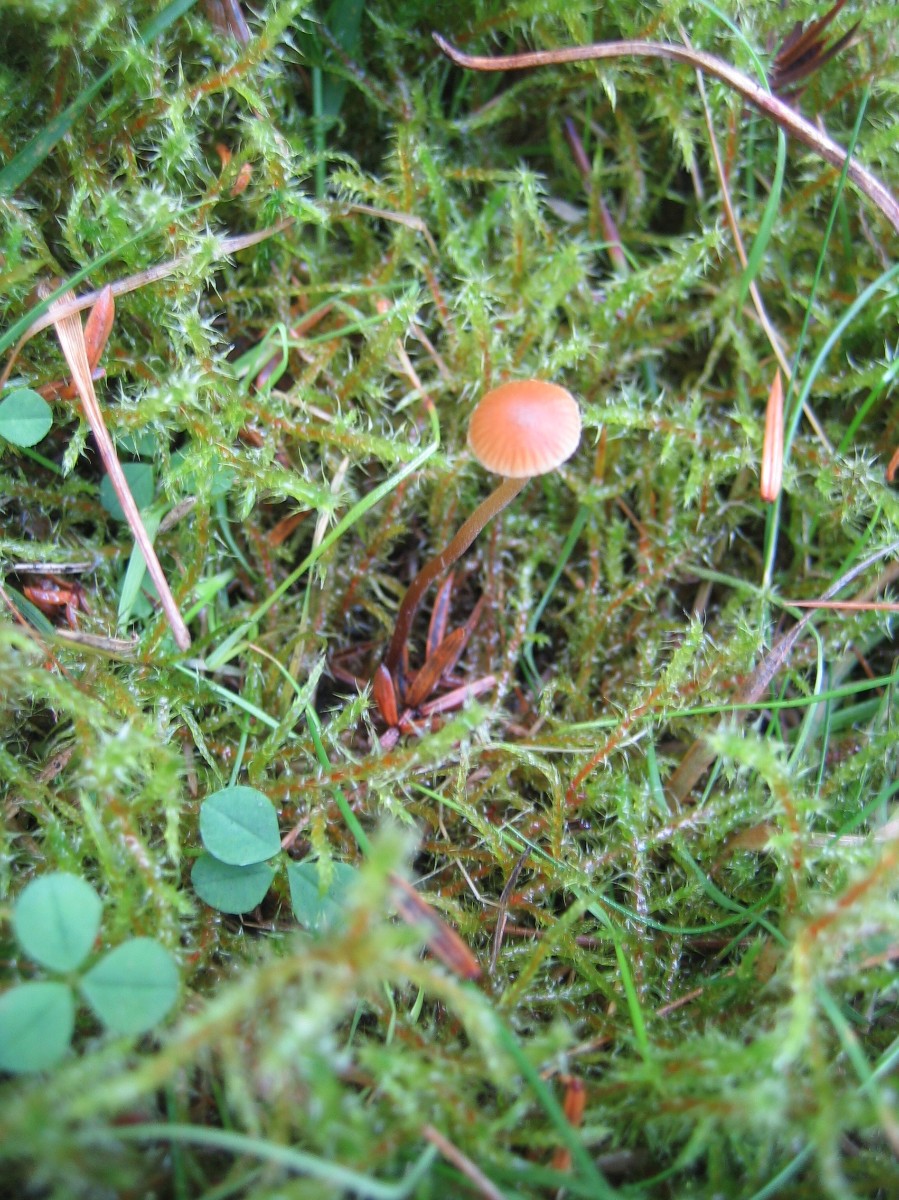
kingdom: Fungi
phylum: Basidiomycota
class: Agaricomycetes
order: Agaricales
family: Hymenogastraceae
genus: Galerina
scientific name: Galerina
